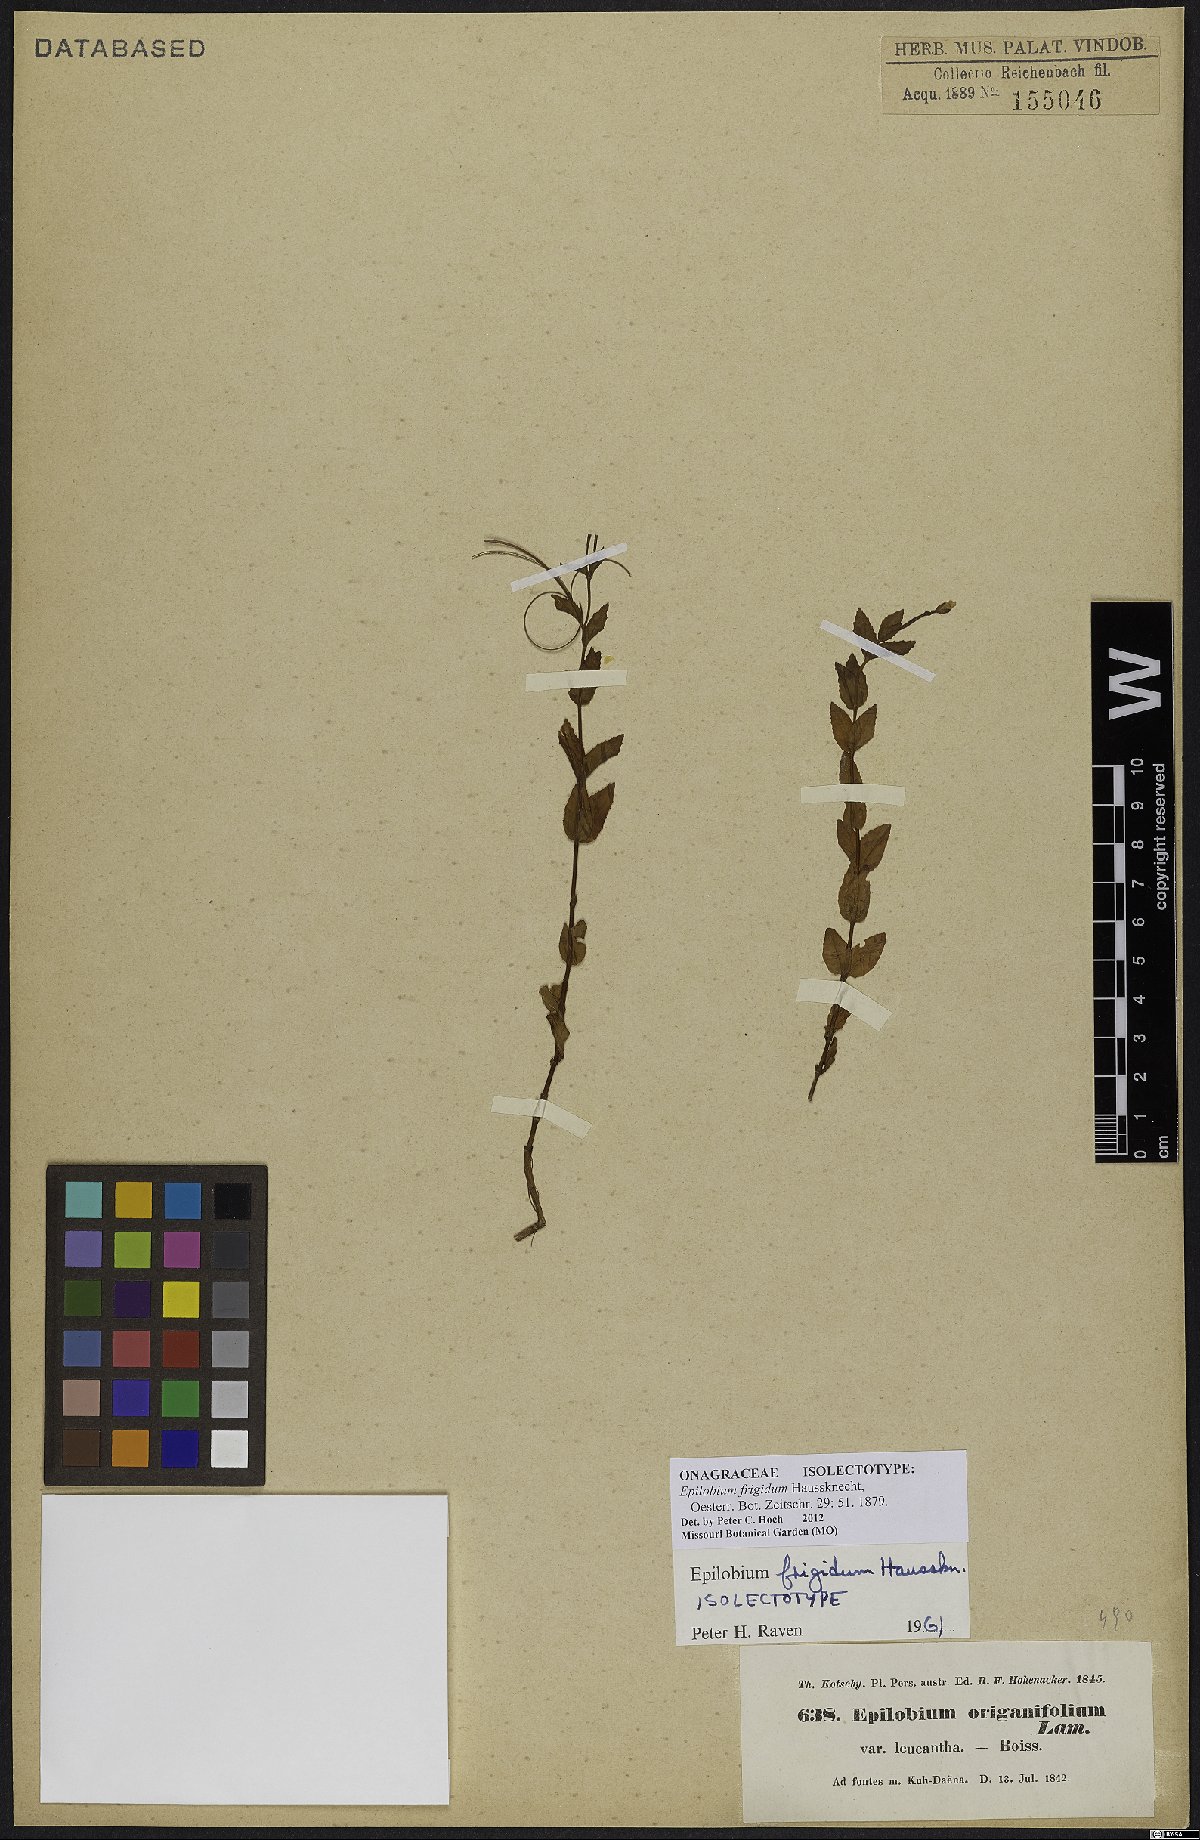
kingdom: Plantae
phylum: Tracheophyta
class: Magnoliopsida
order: Myrtales
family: Onagraceae
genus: Epilobium
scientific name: Epilobium ponticum
